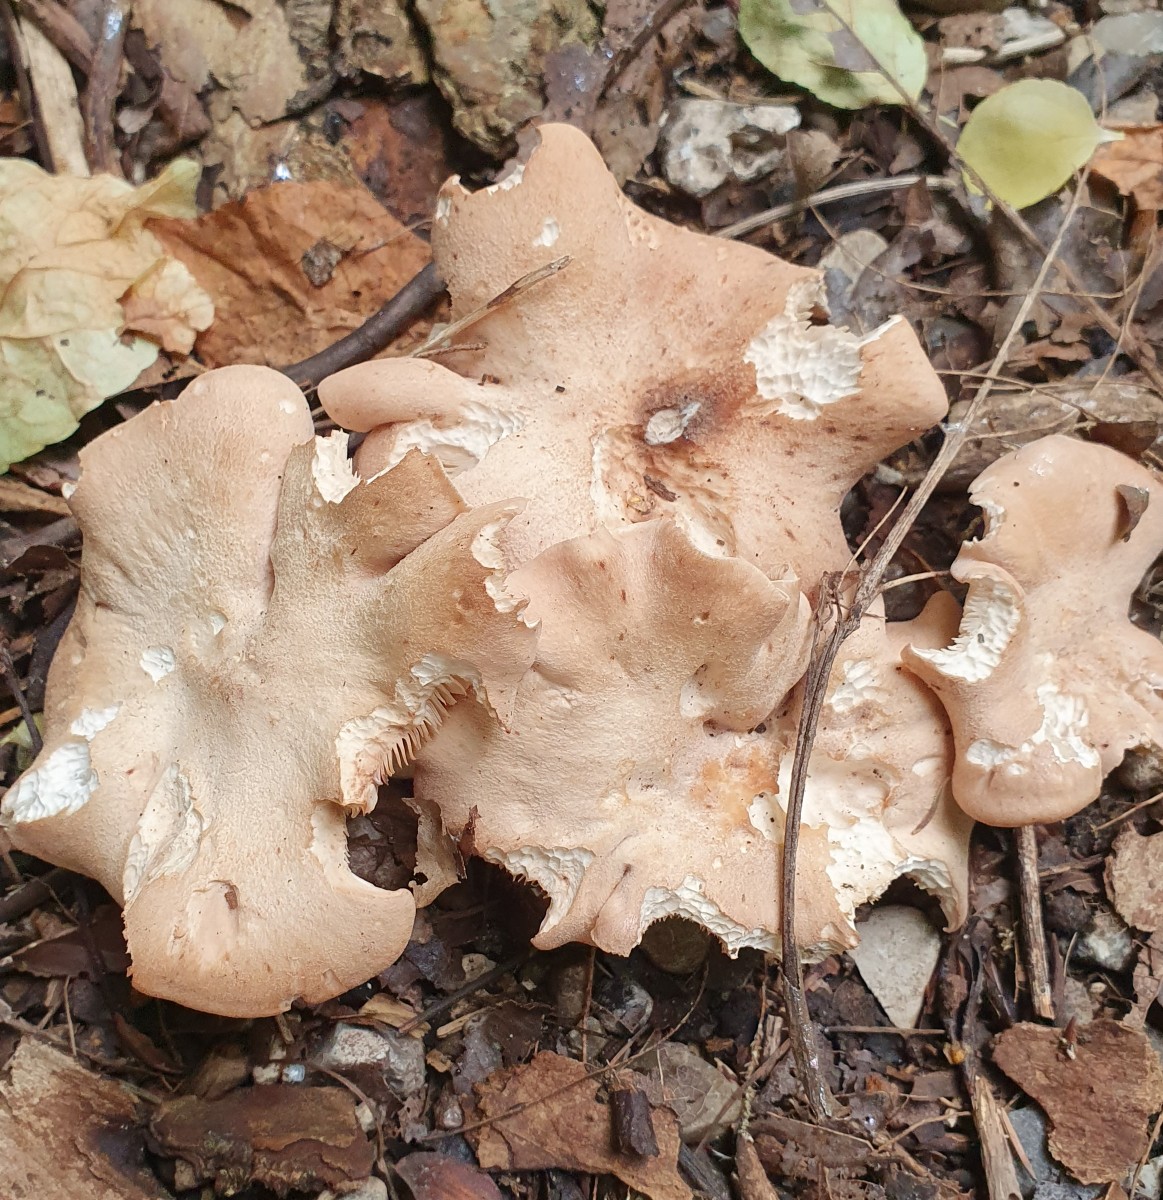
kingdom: Fungi
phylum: Basidiomycota
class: Agaricomycetes
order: Agaricales
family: Entolomataceae
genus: Clitopilus
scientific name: Clitopilus geminus
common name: kødfarvet troldhat
